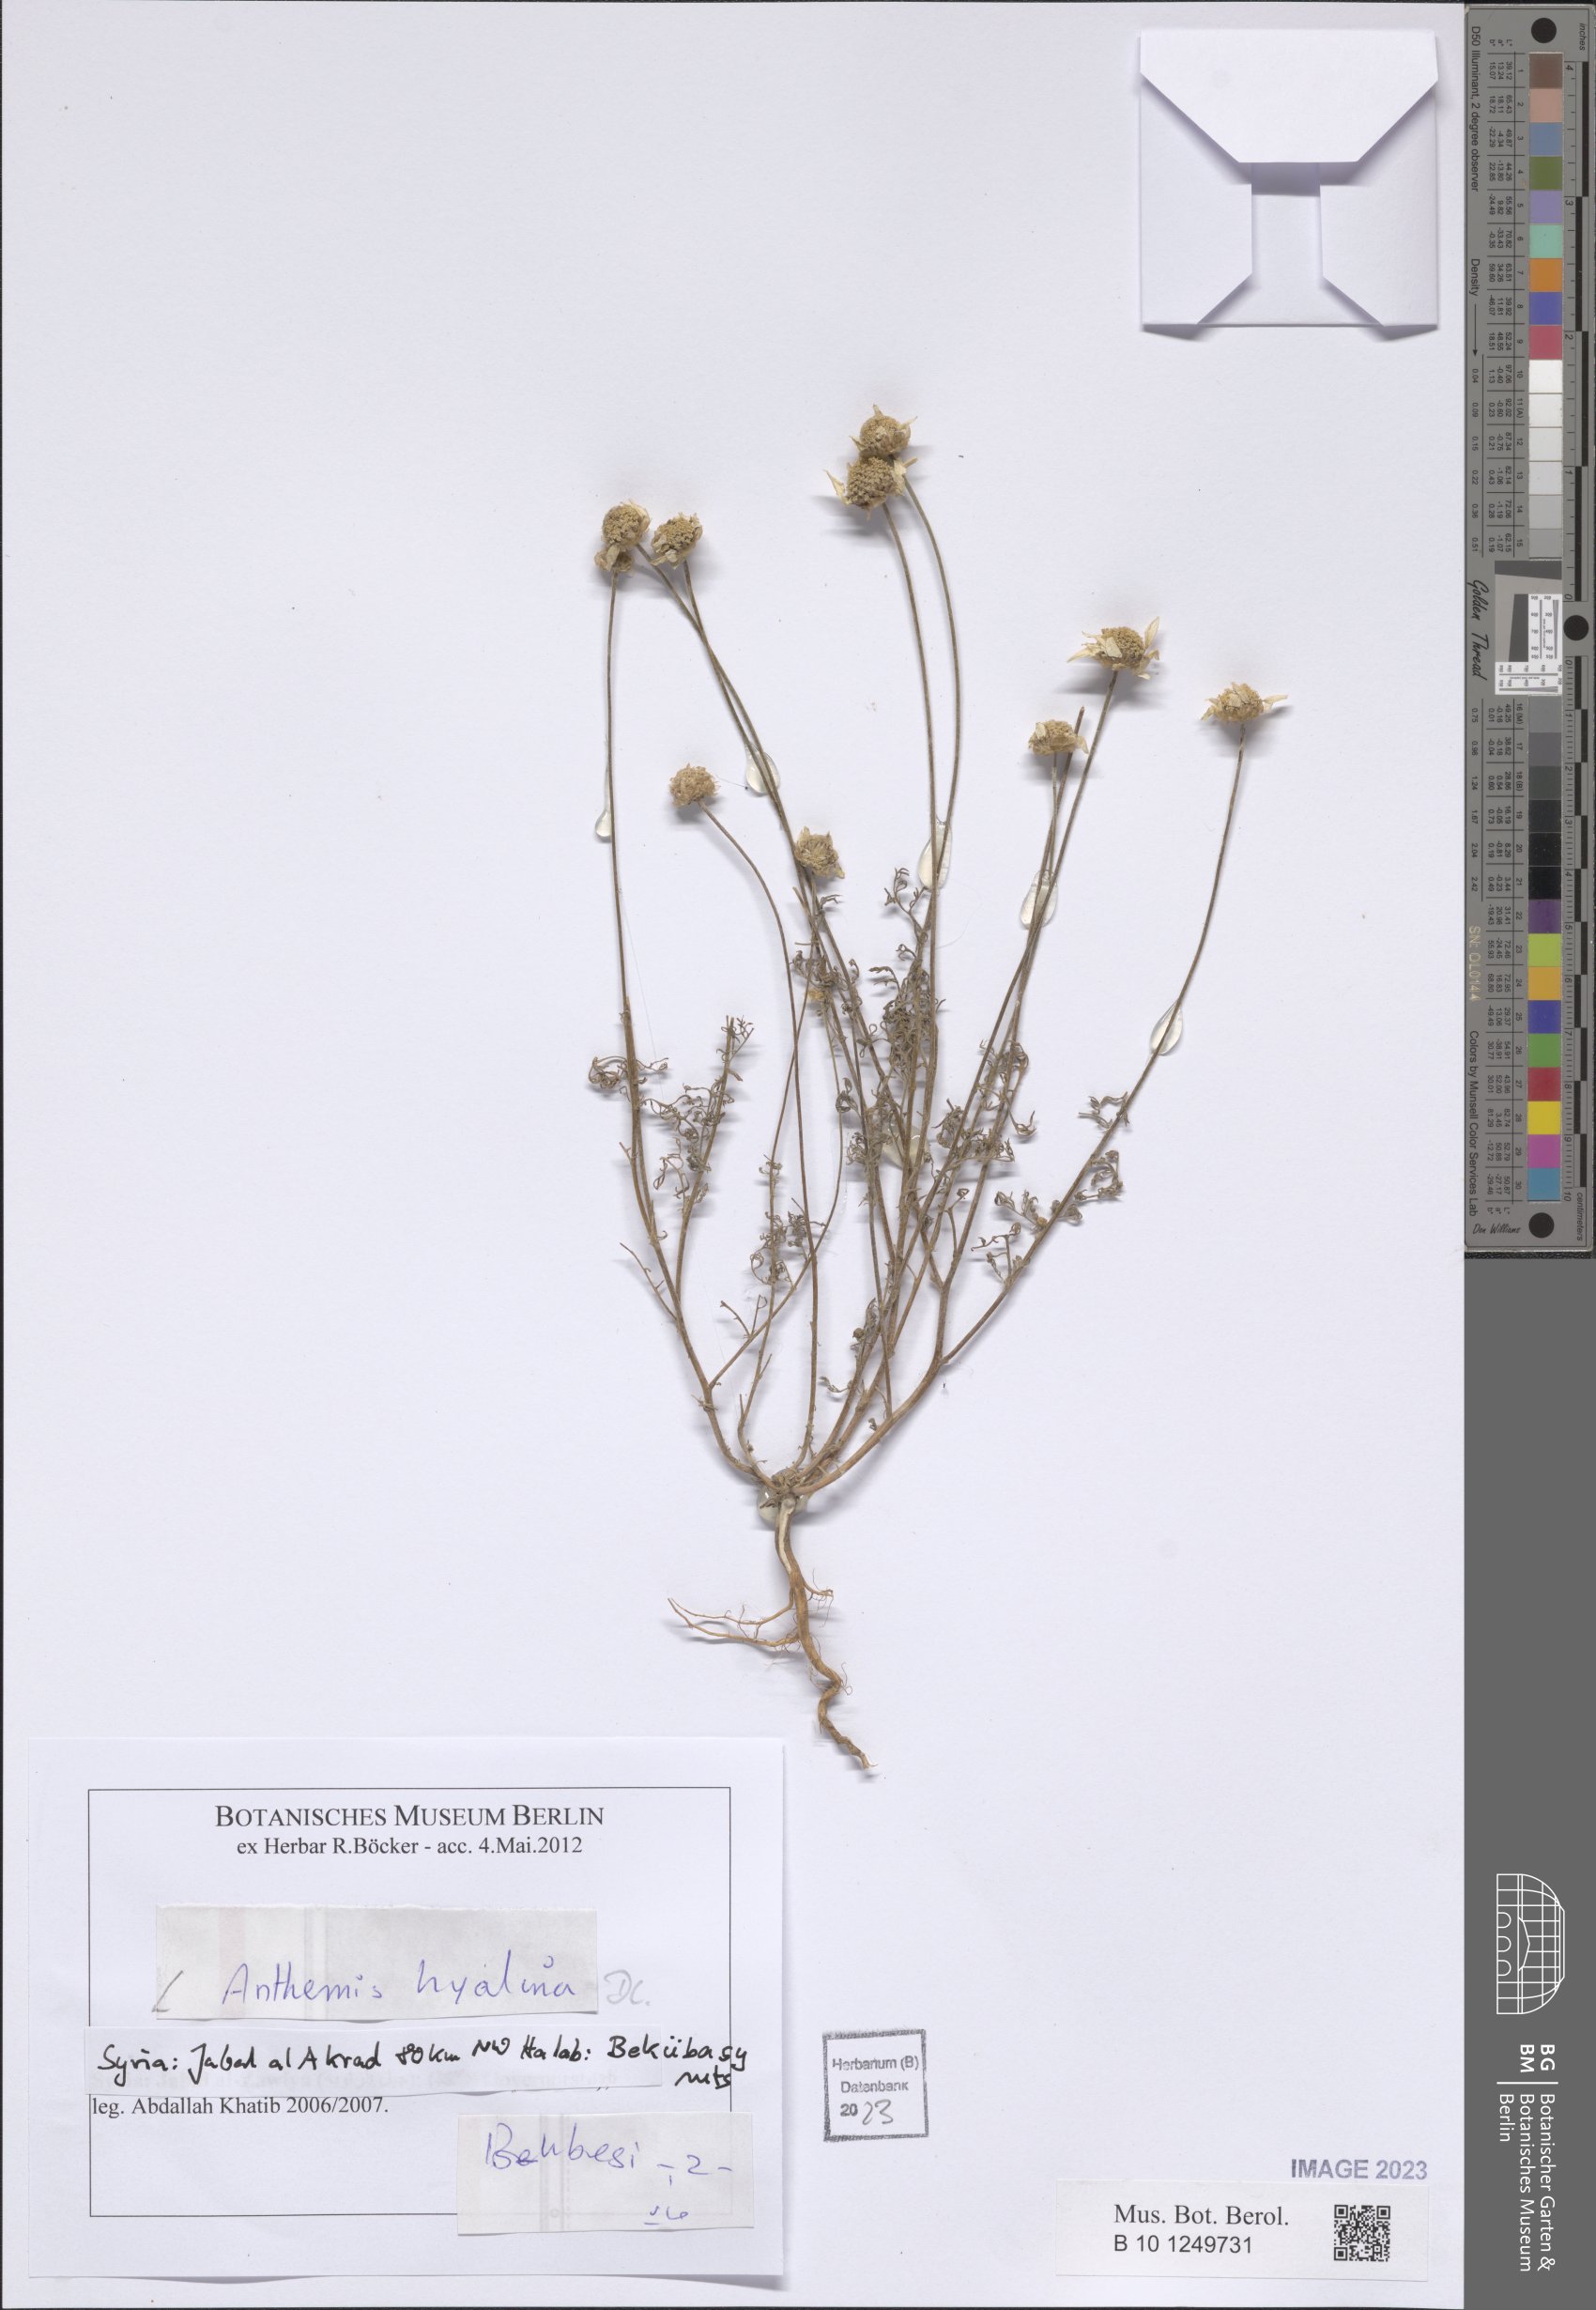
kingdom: Plantae
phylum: Tracheophyta
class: Magnoliopsida
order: Asterales
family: Asteraceae
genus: Anthemis
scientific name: Anthemis hyalina
